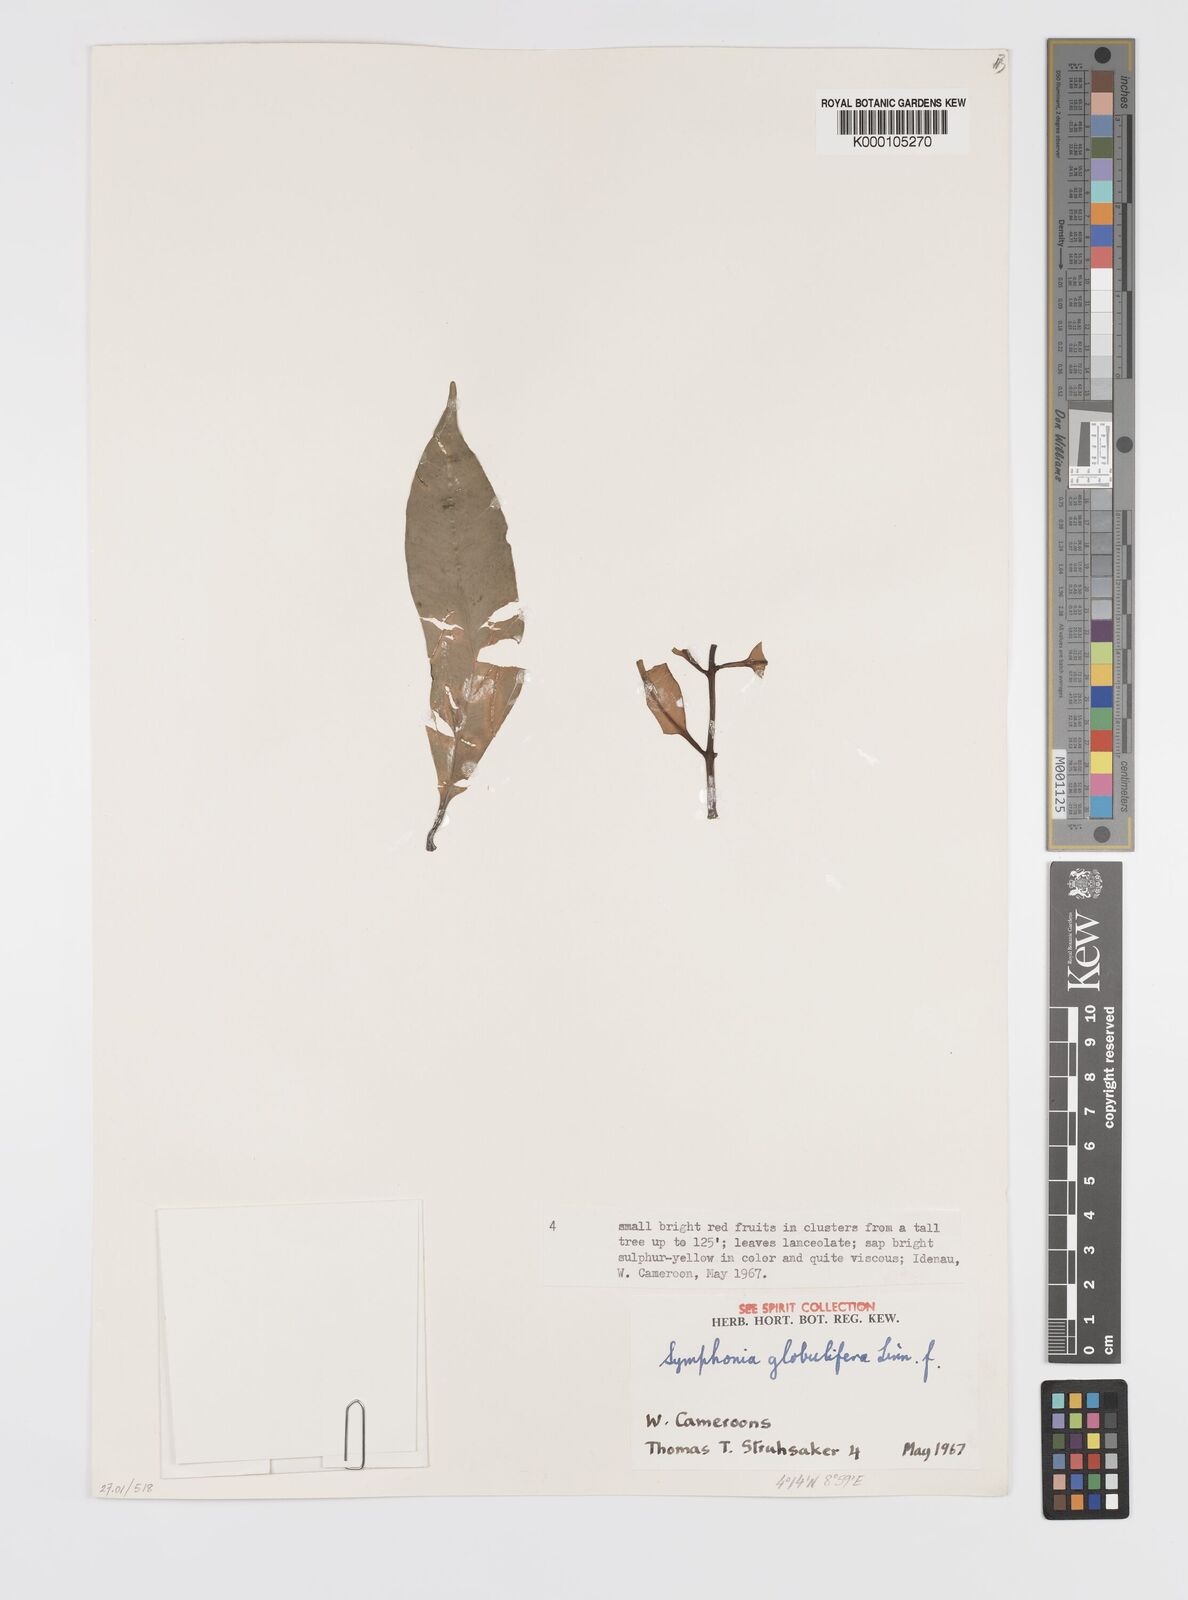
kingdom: Plantae
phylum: Tracheophyta
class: Magnoliopsida
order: Malpighiales
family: Clusiaceae
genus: Symphonia
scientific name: Symphonia globulifera
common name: Boarwood
